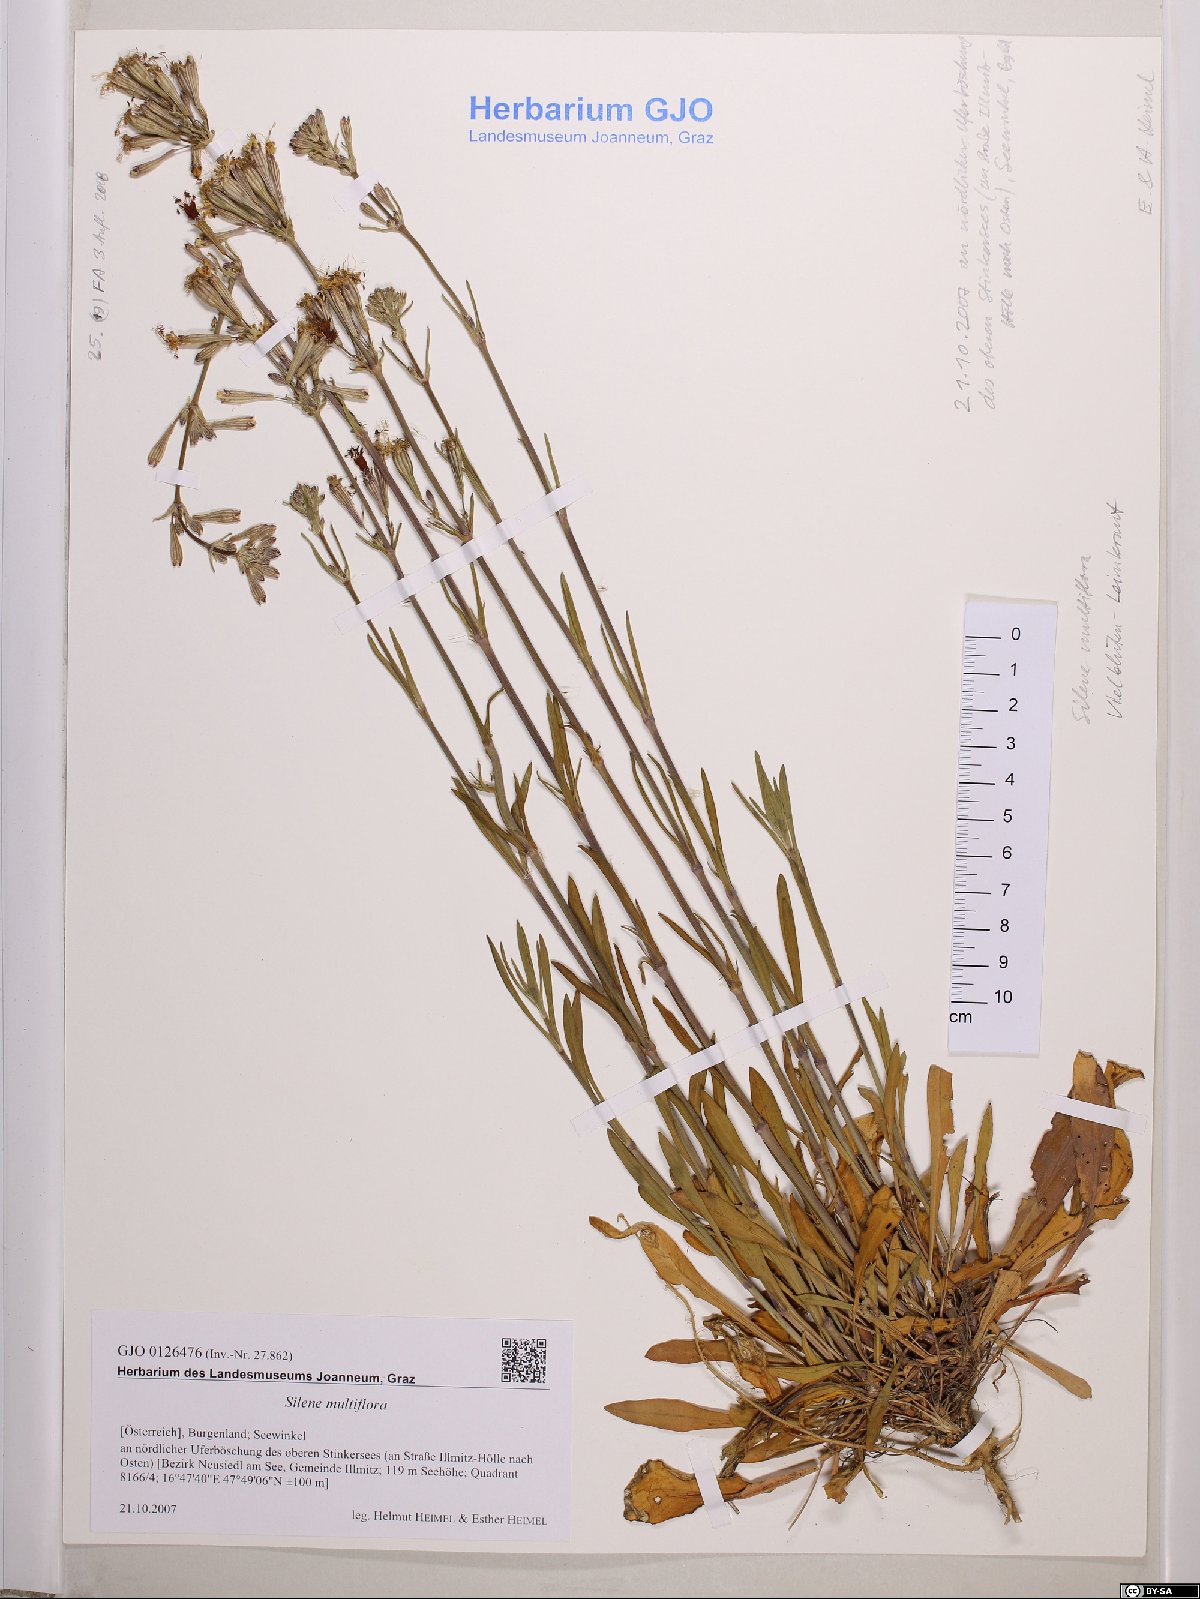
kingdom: Plantae
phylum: Tracheophyta
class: Magnoliopsida
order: Caryophyllales
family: Caryophyllaceae
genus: Silene
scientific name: Silene multiflora
